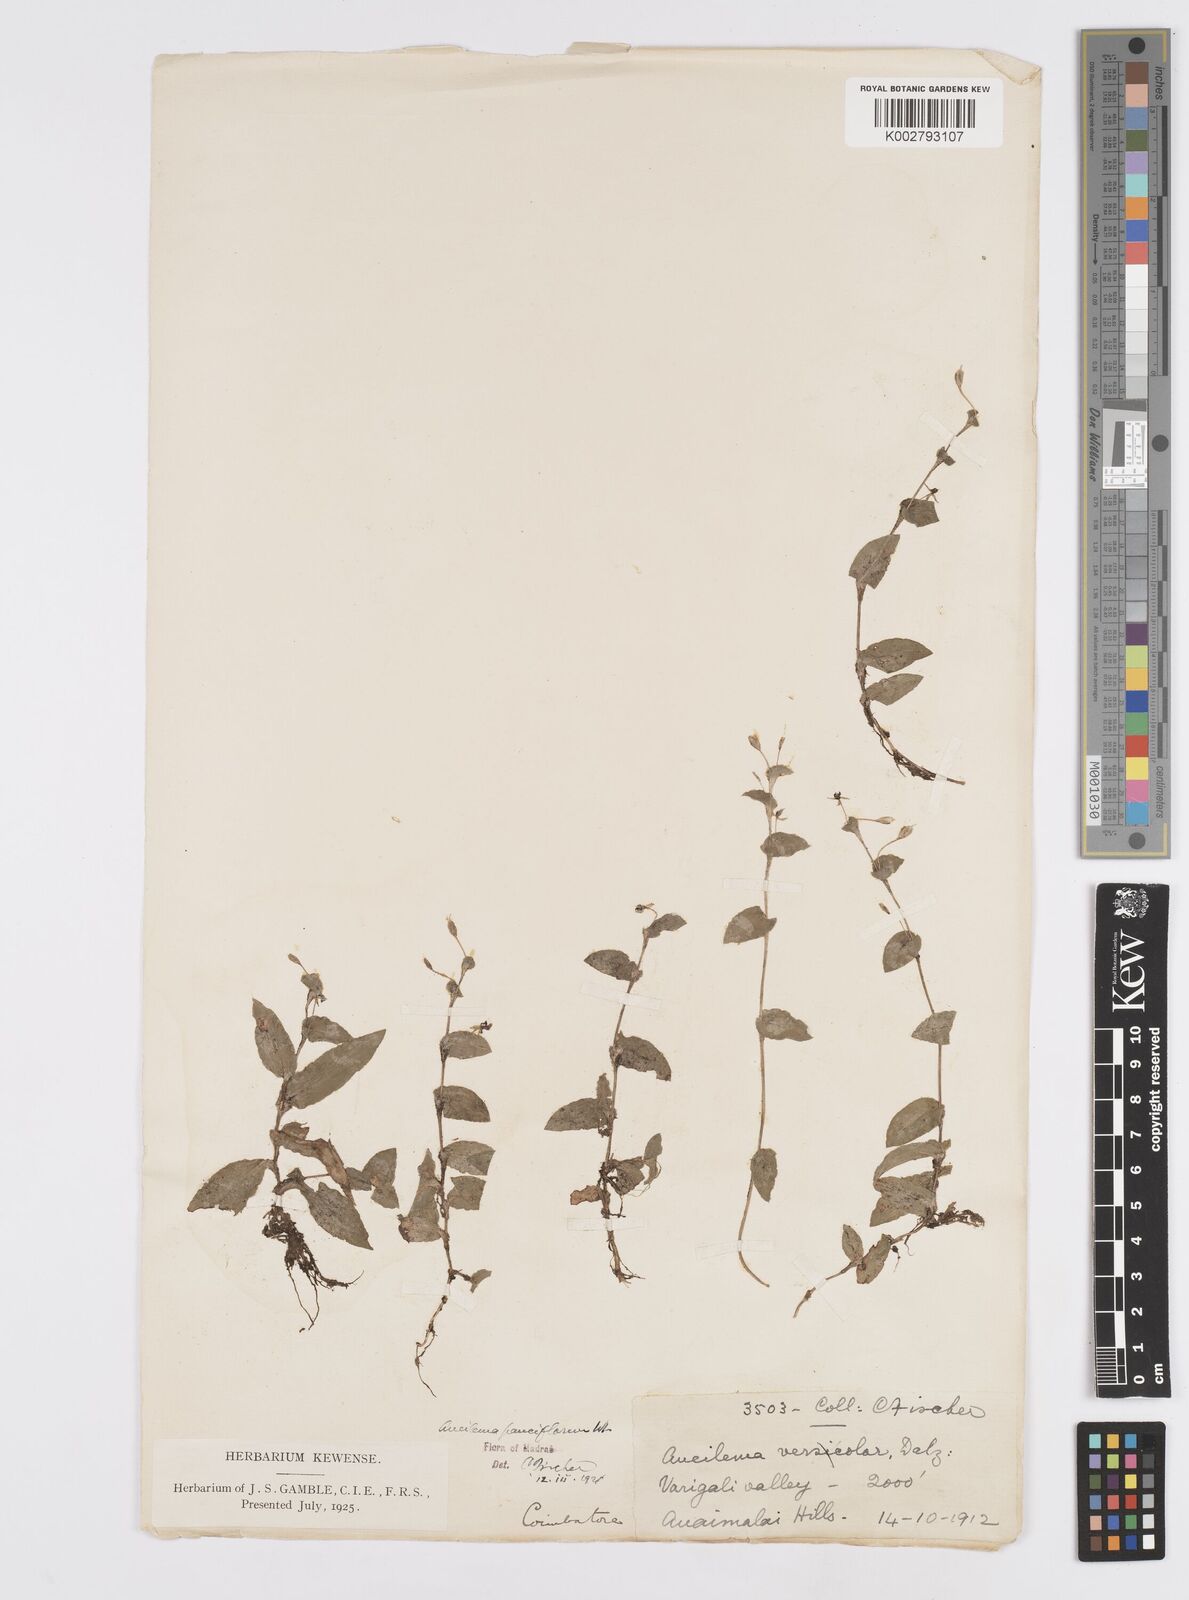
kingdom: Plantae
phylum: Tracheophyta
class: Liliopsida
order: Commelinales
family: Commelinaceae
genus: Murdannia
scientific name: Murdannia pauciflora
